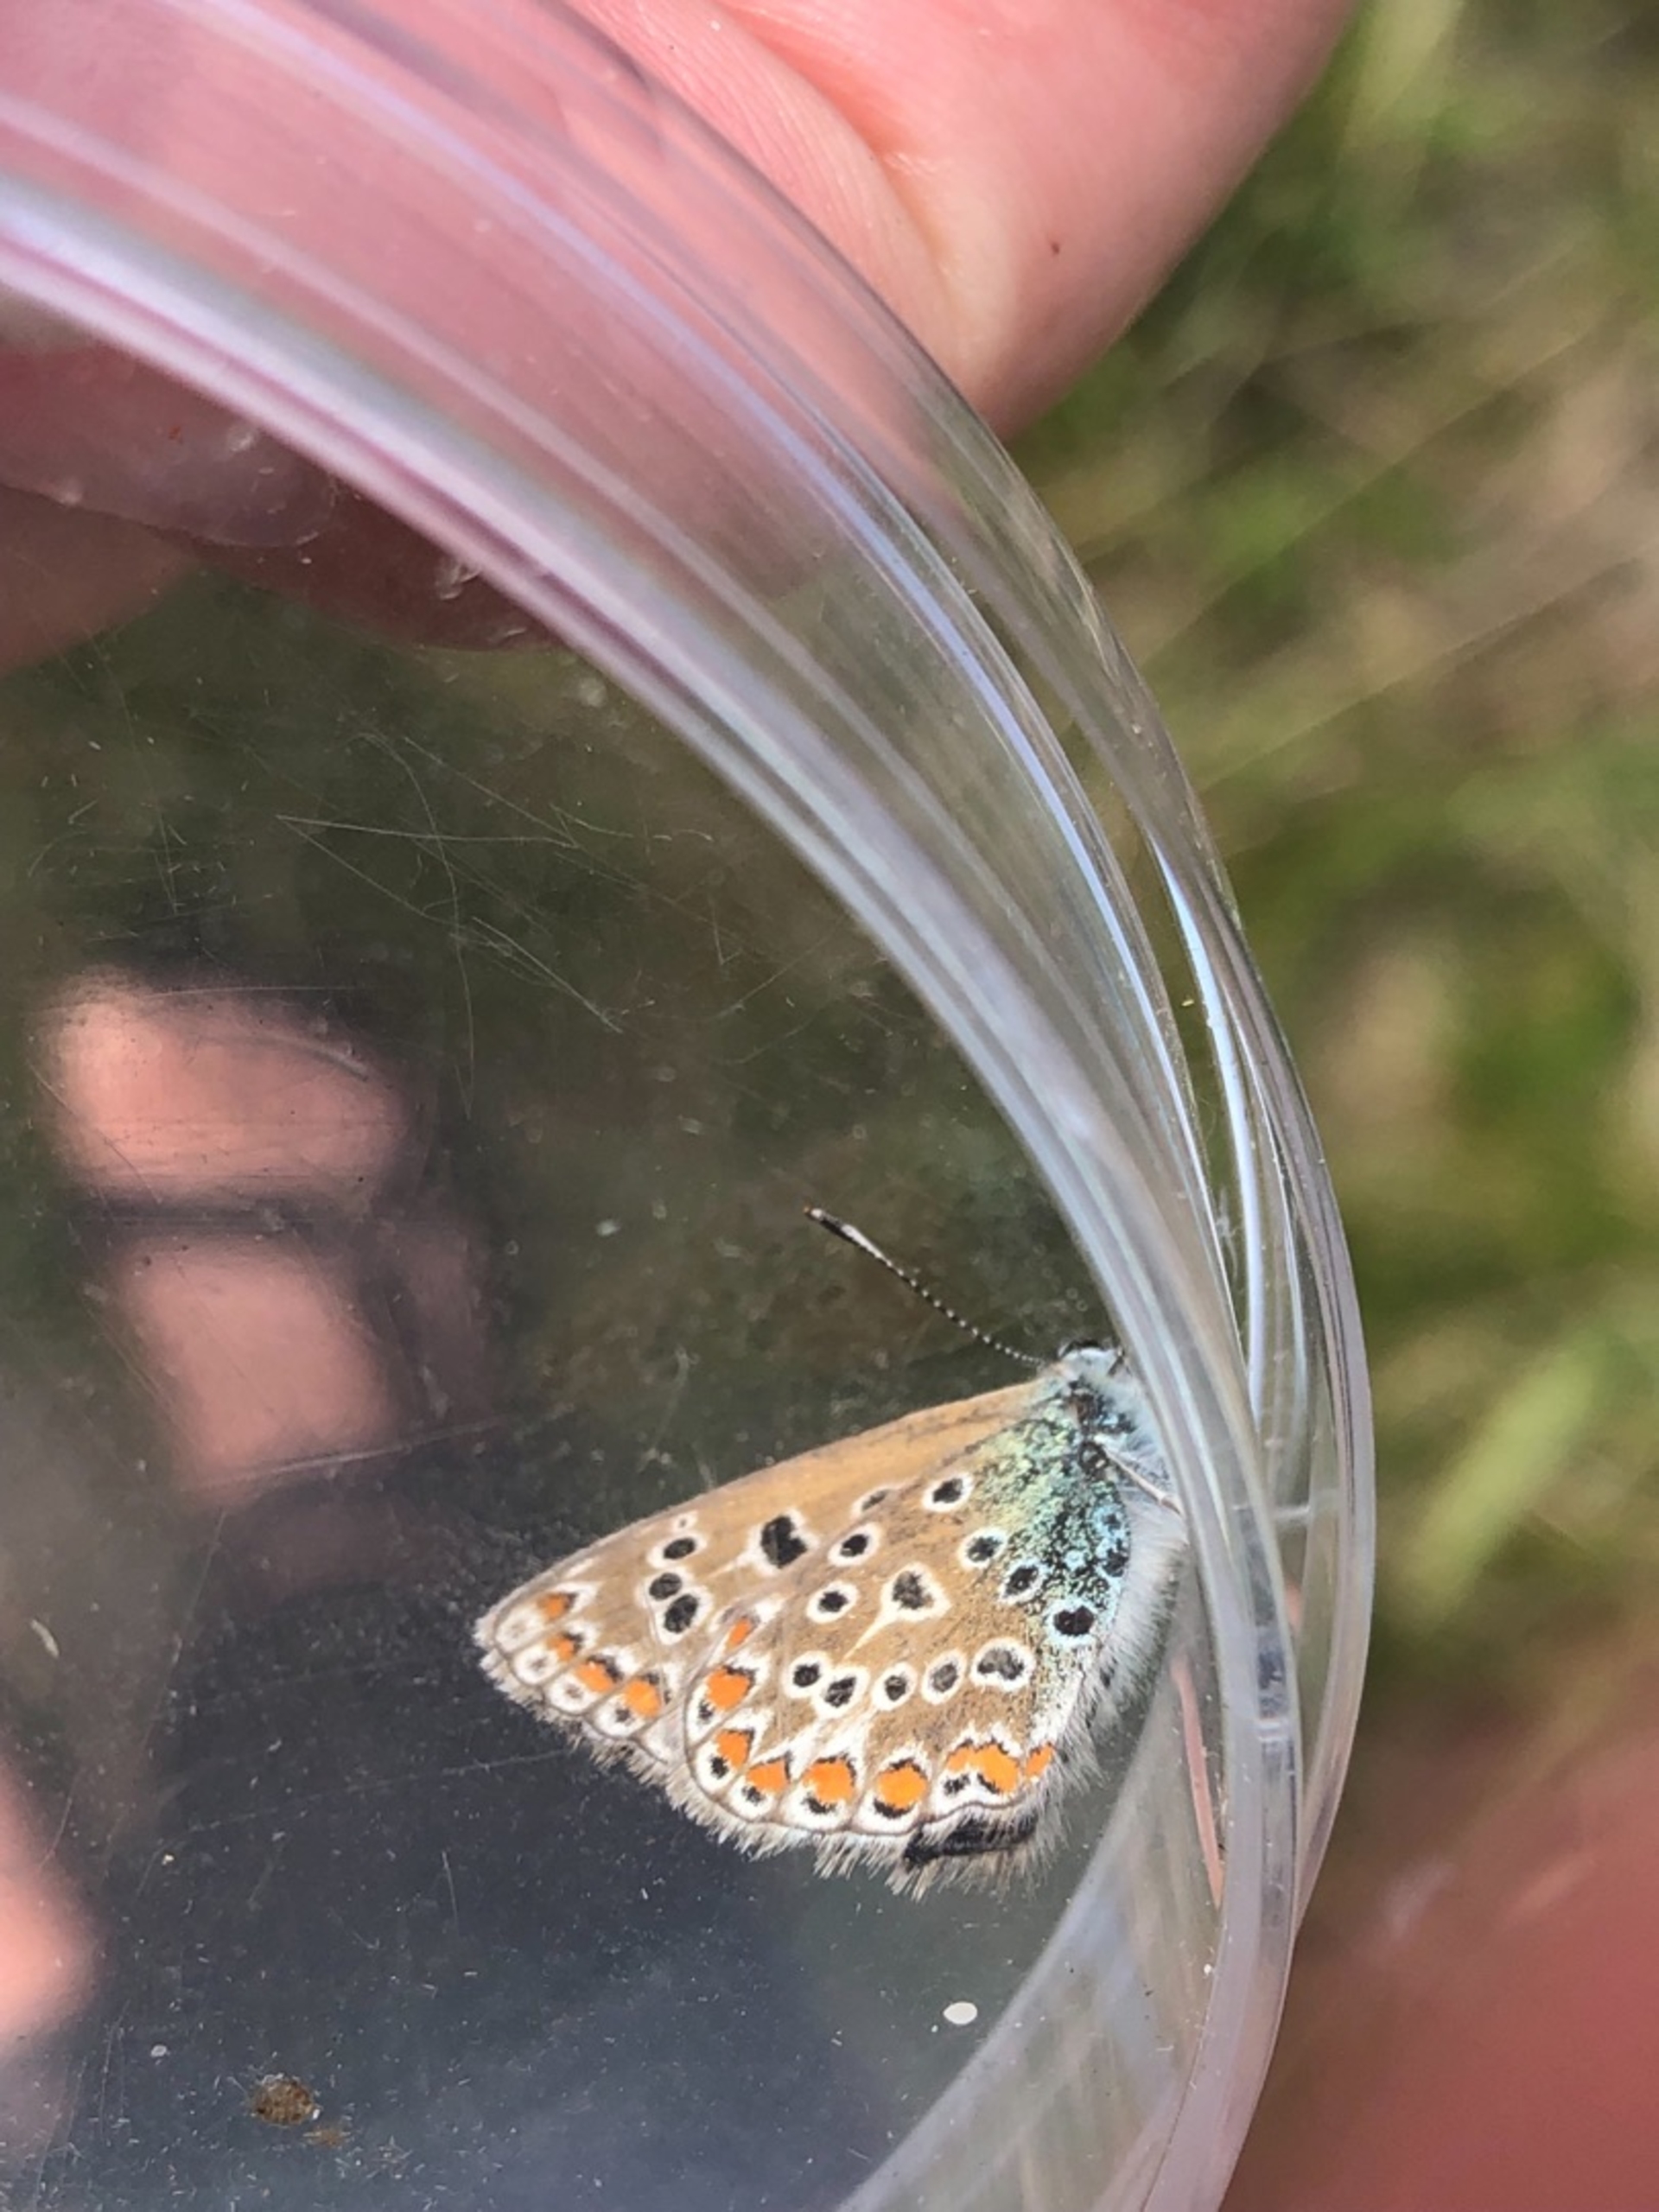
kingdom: Animalia
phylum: Arthropoda
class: Insecta
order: Lepidoptera
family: Lycaenidae
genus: Polyommatus
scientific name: Polyommatus icarus
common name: Almindelig blåfugl
